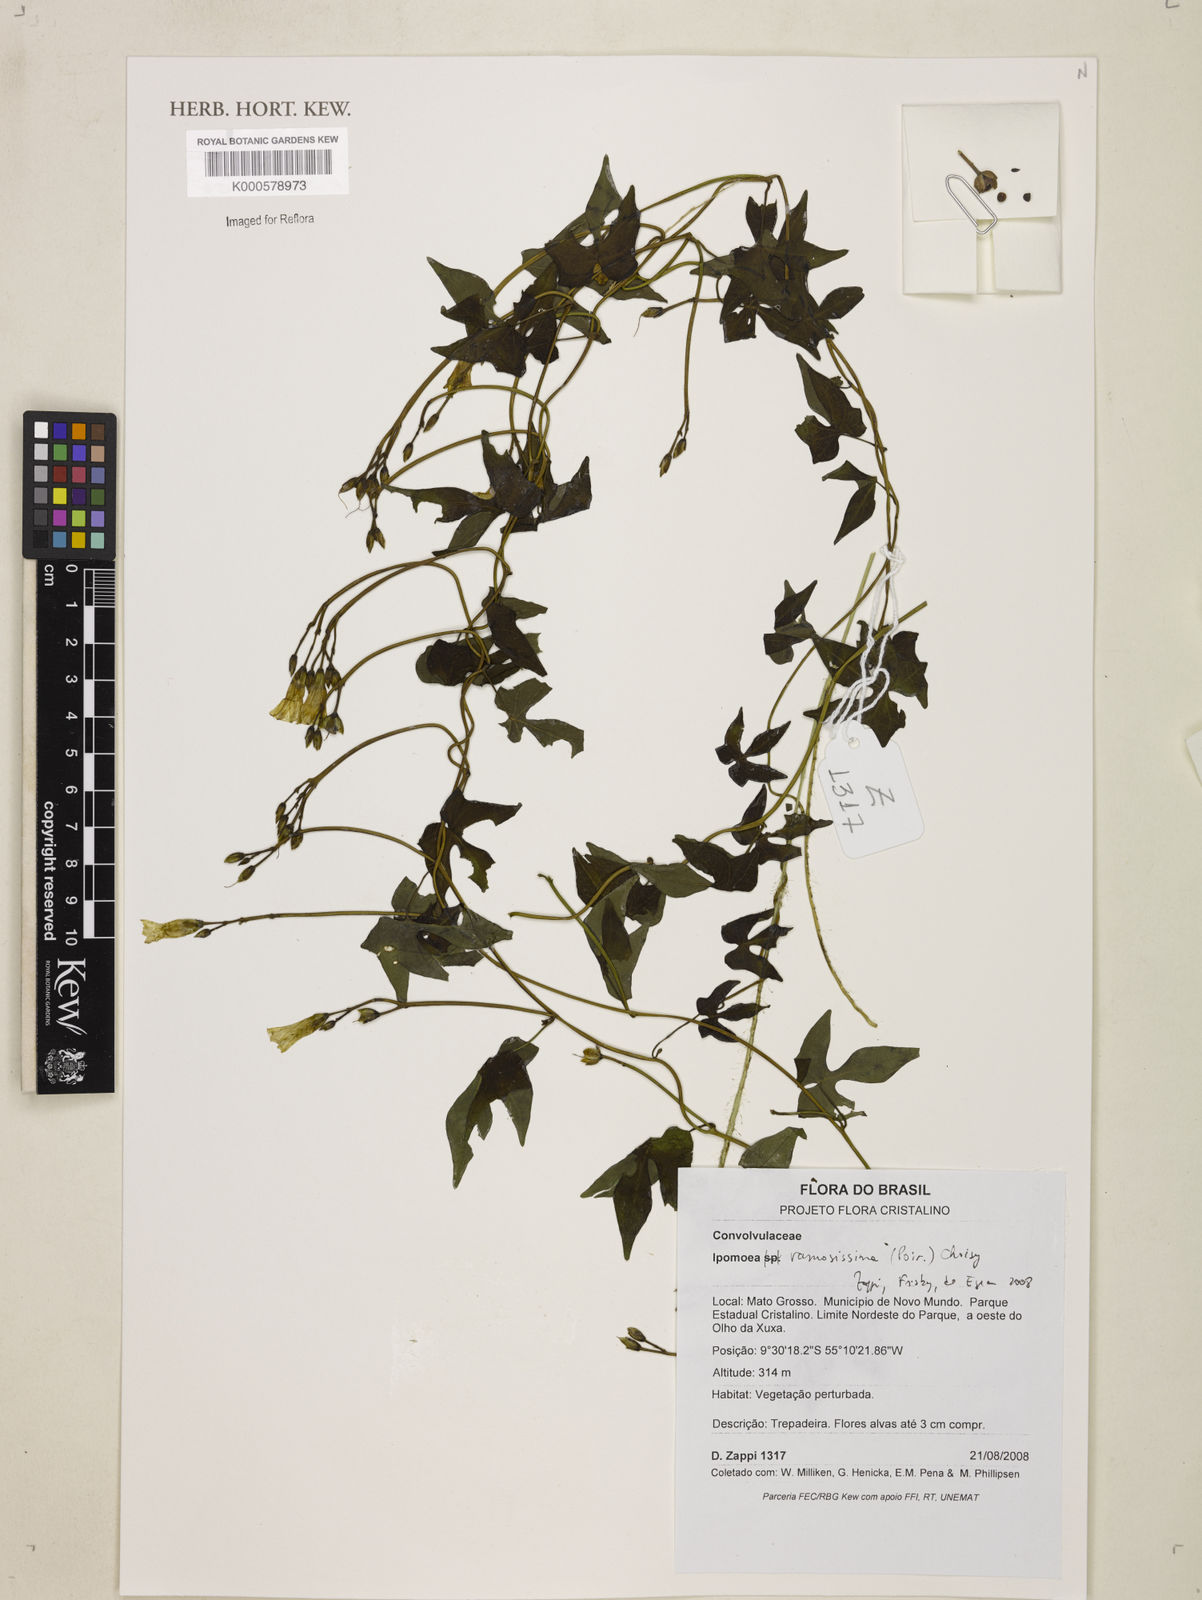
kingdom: Plantae
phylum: Tracheophyta
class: Magnoliopsida
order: Solanales
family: Convolvulaceae
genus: Ipomoea
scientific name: Ipomoea ramosissima
